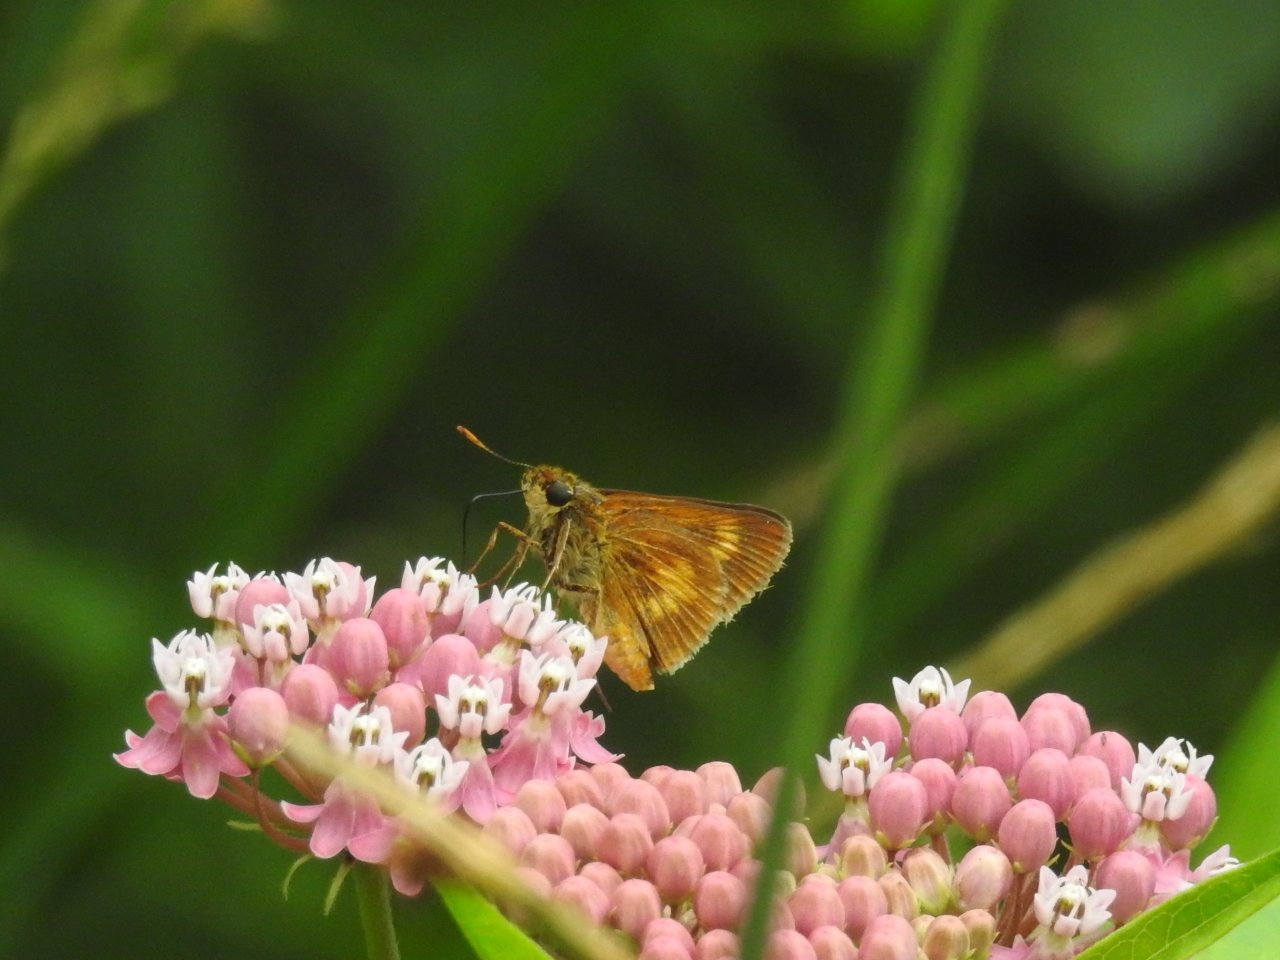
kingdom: Animalia
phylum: Arthropoda
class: Insecta
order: Lepidoptera
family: Hesperiidae
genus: Euphyes
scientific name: Euphyes conspicua
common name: Black Dash
